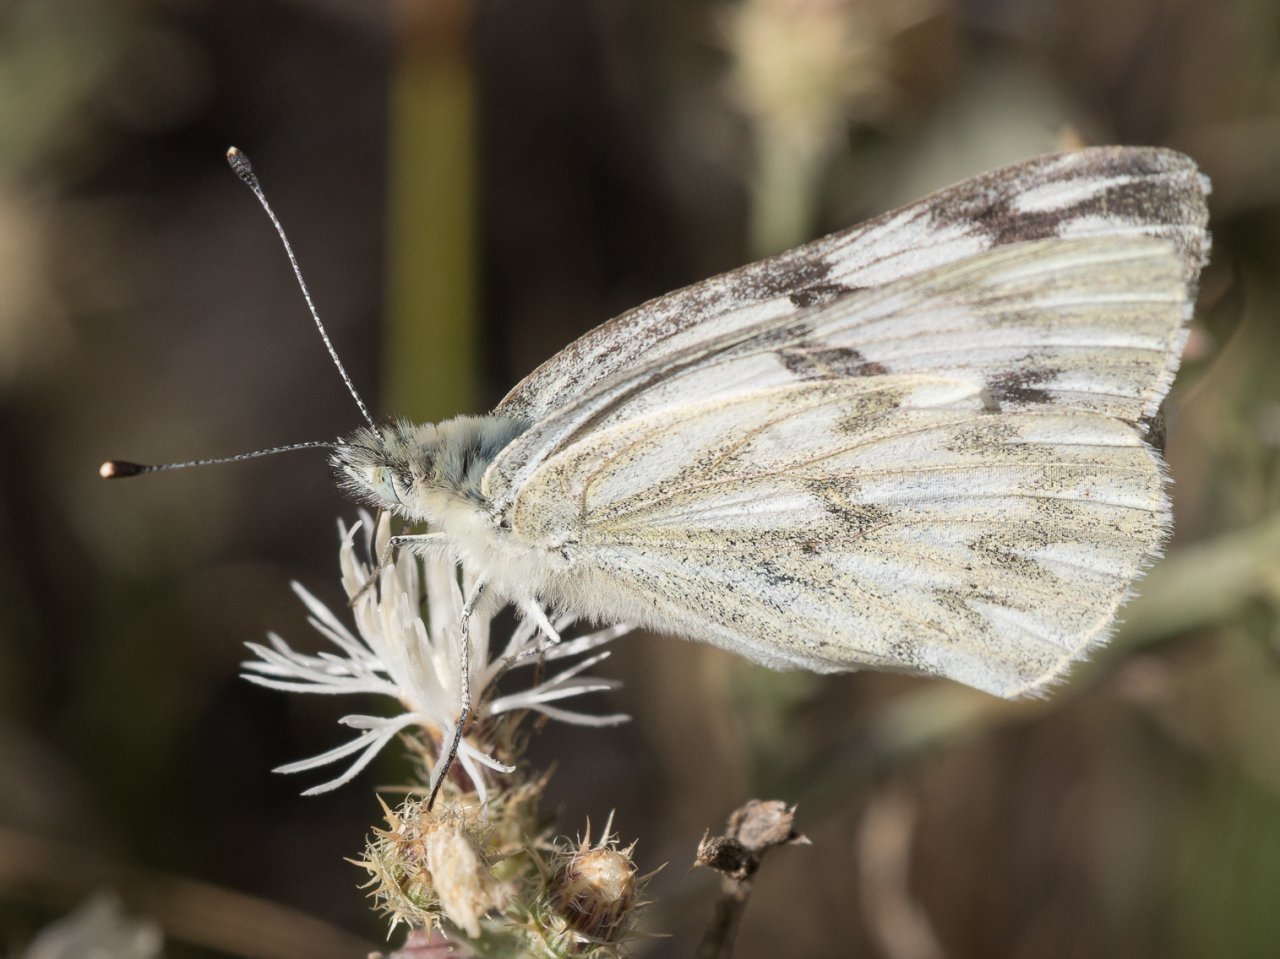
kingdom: Animalia
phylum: Arthropoda
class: Insecta
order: Lepidoptera
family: Pieridae
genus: Pontia
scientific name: Pontia occidentalis
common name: Western White
